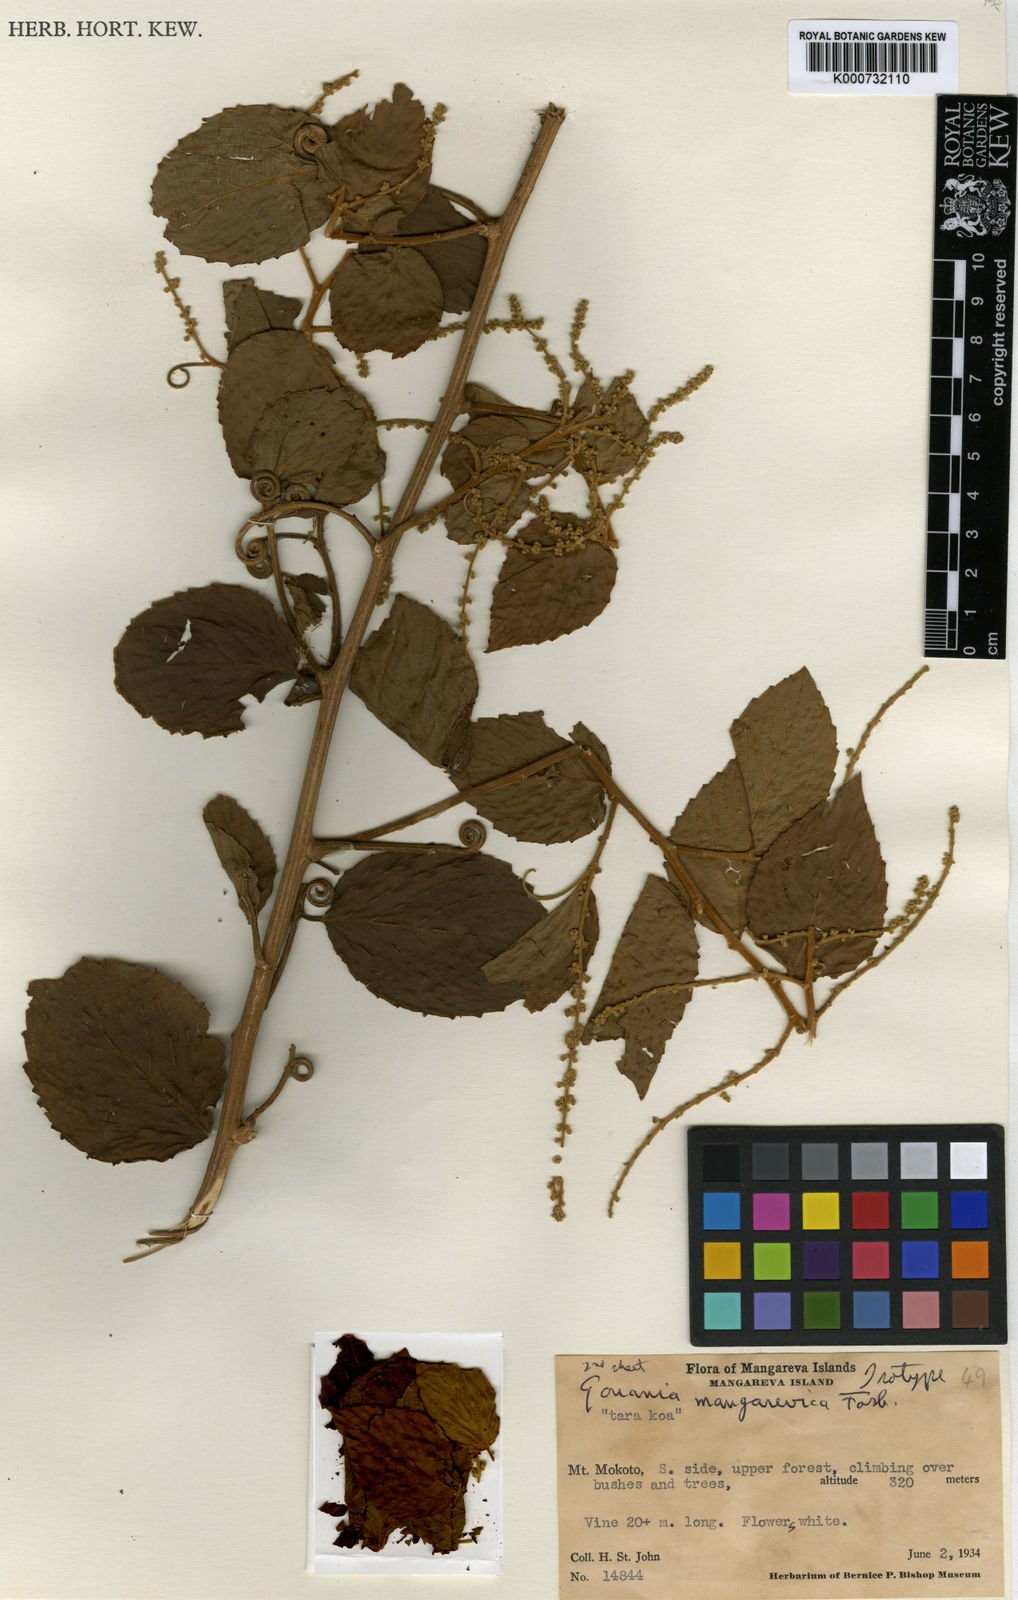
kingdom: Plantae
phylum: Tracheophyta
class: Magnoliopsida
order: Rosales
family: Rhamnaceae
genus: Gouania
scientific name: Gouania mangarevica
